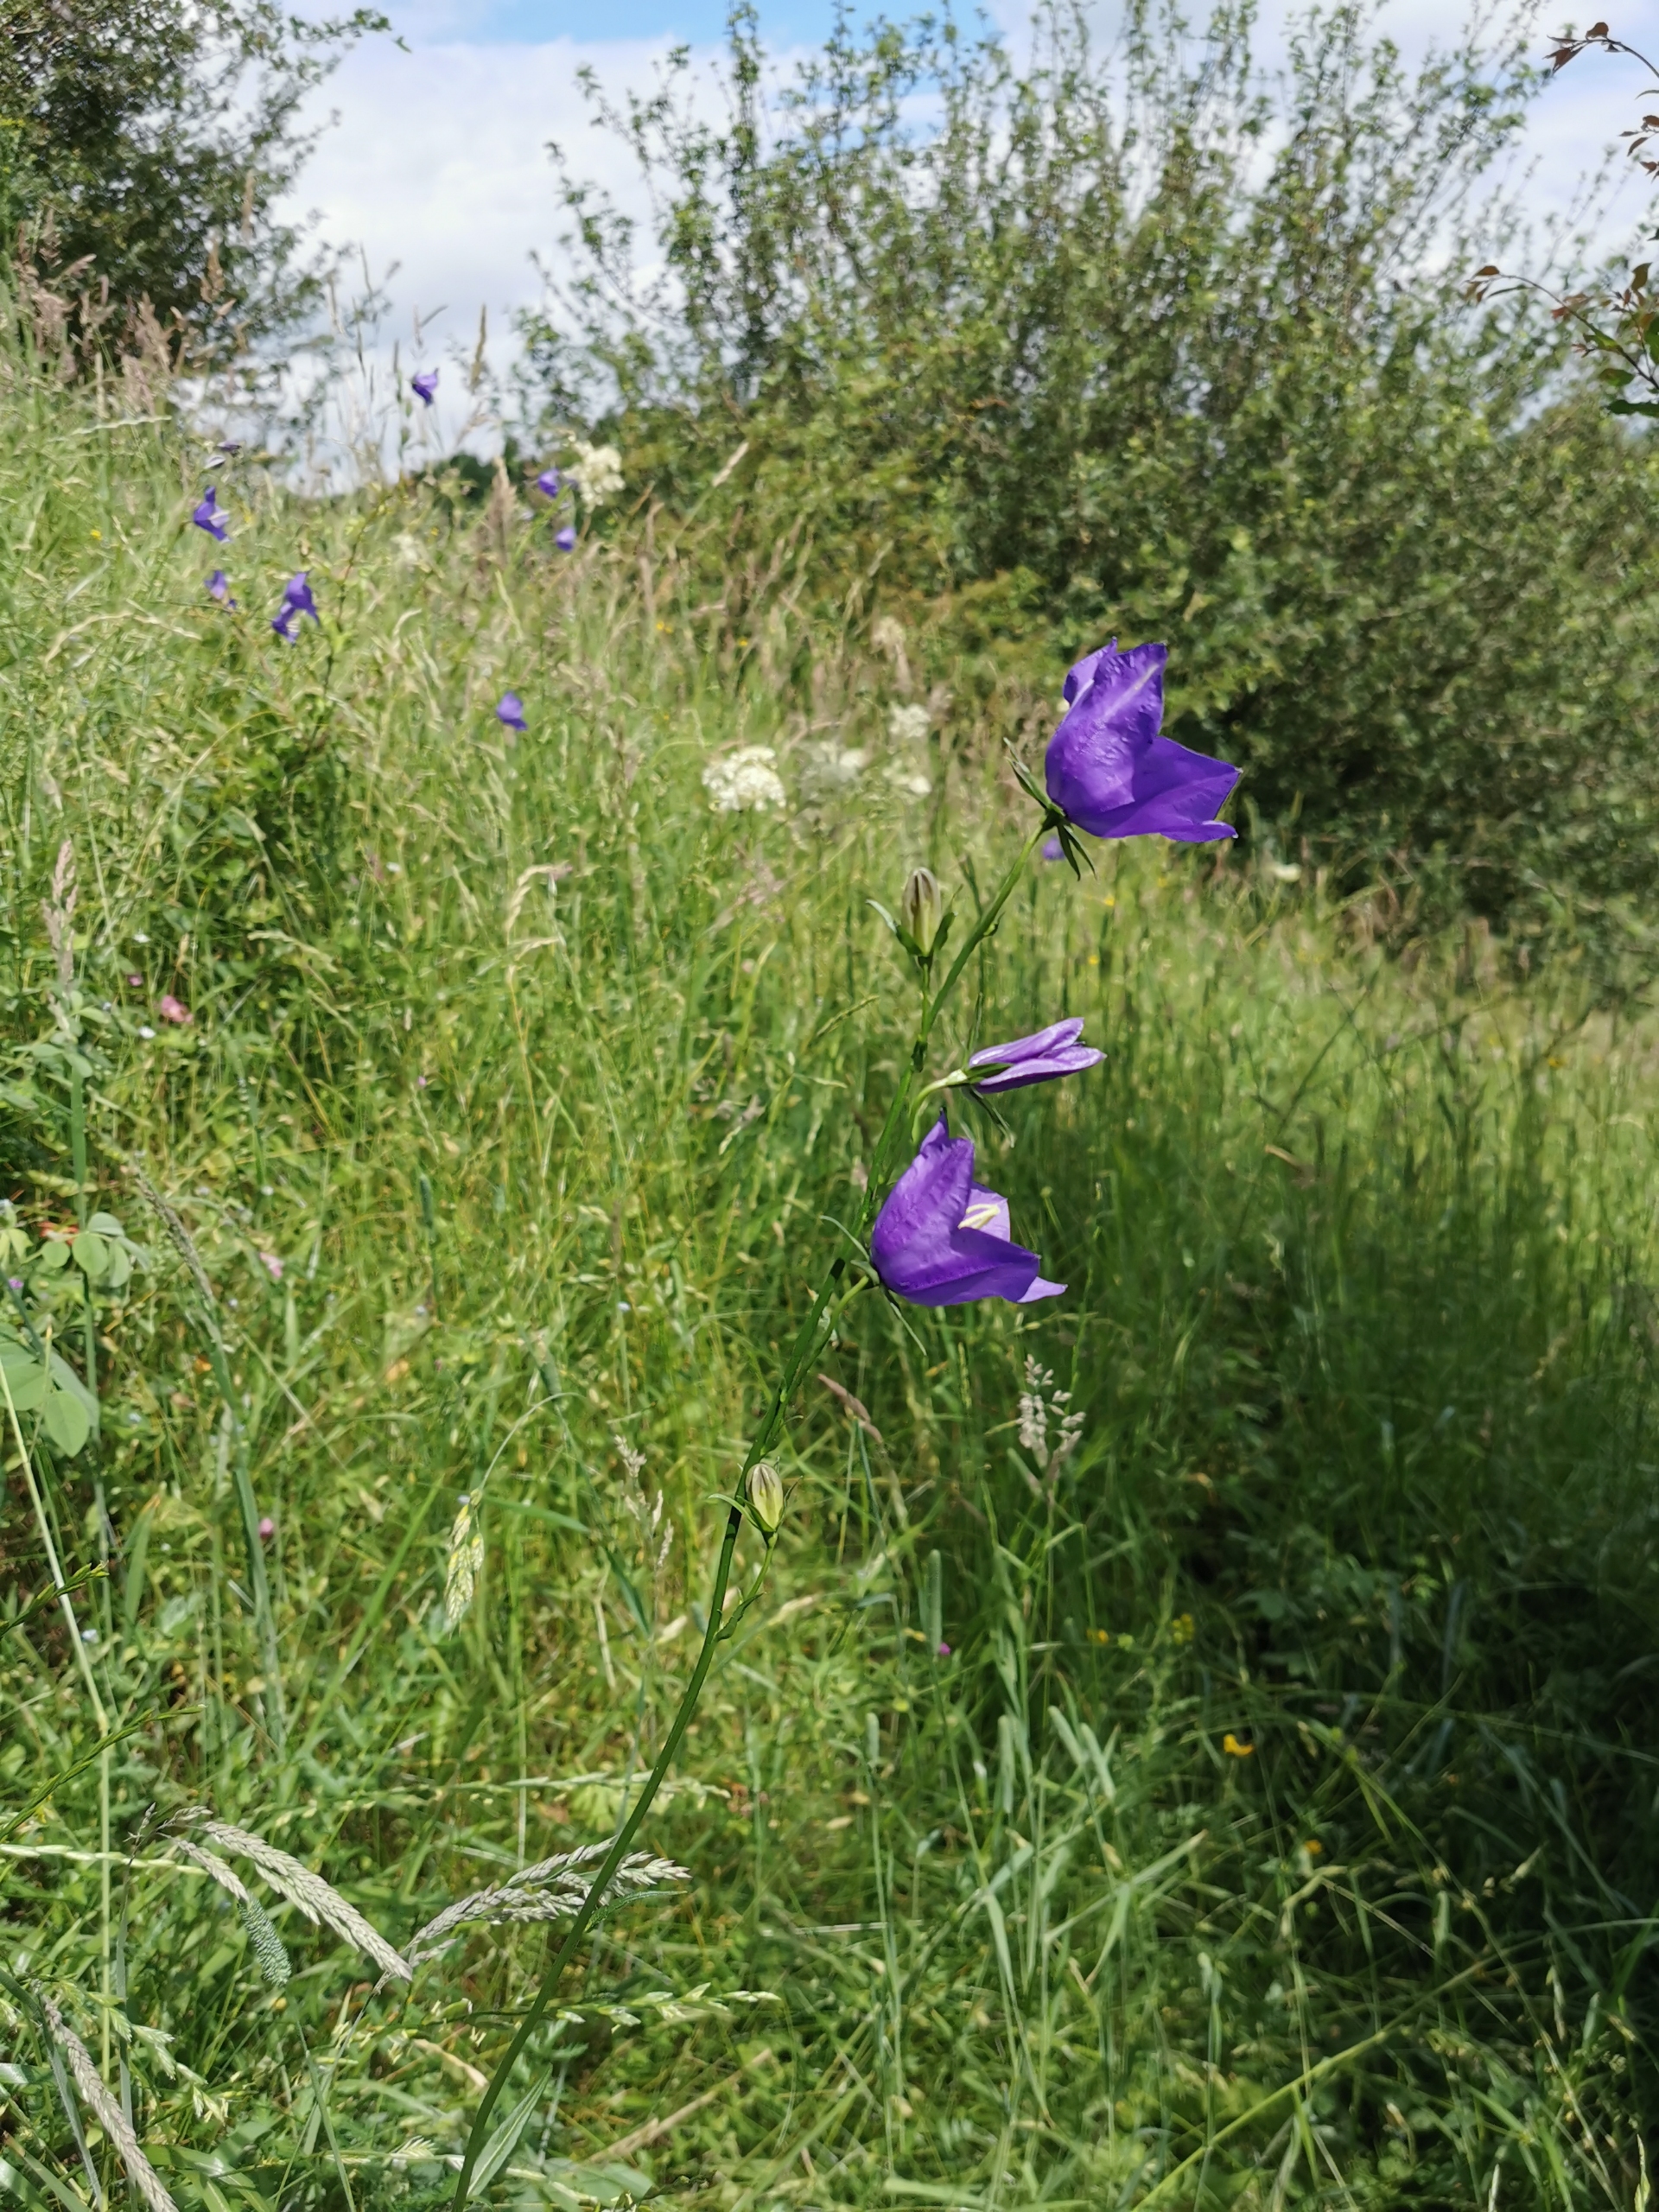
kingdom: Plantae
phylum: Tracheophyta
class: Magnoliopsida
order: Asterales
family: Campanulaceae
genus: Campanula
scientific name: Campanula persicifolia
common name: Smalbladet klokke
